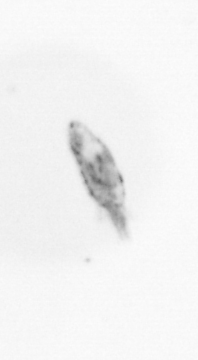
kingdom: Animalia
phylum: Arthropoda
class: Maxillopoda
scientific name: Maxillopoda
